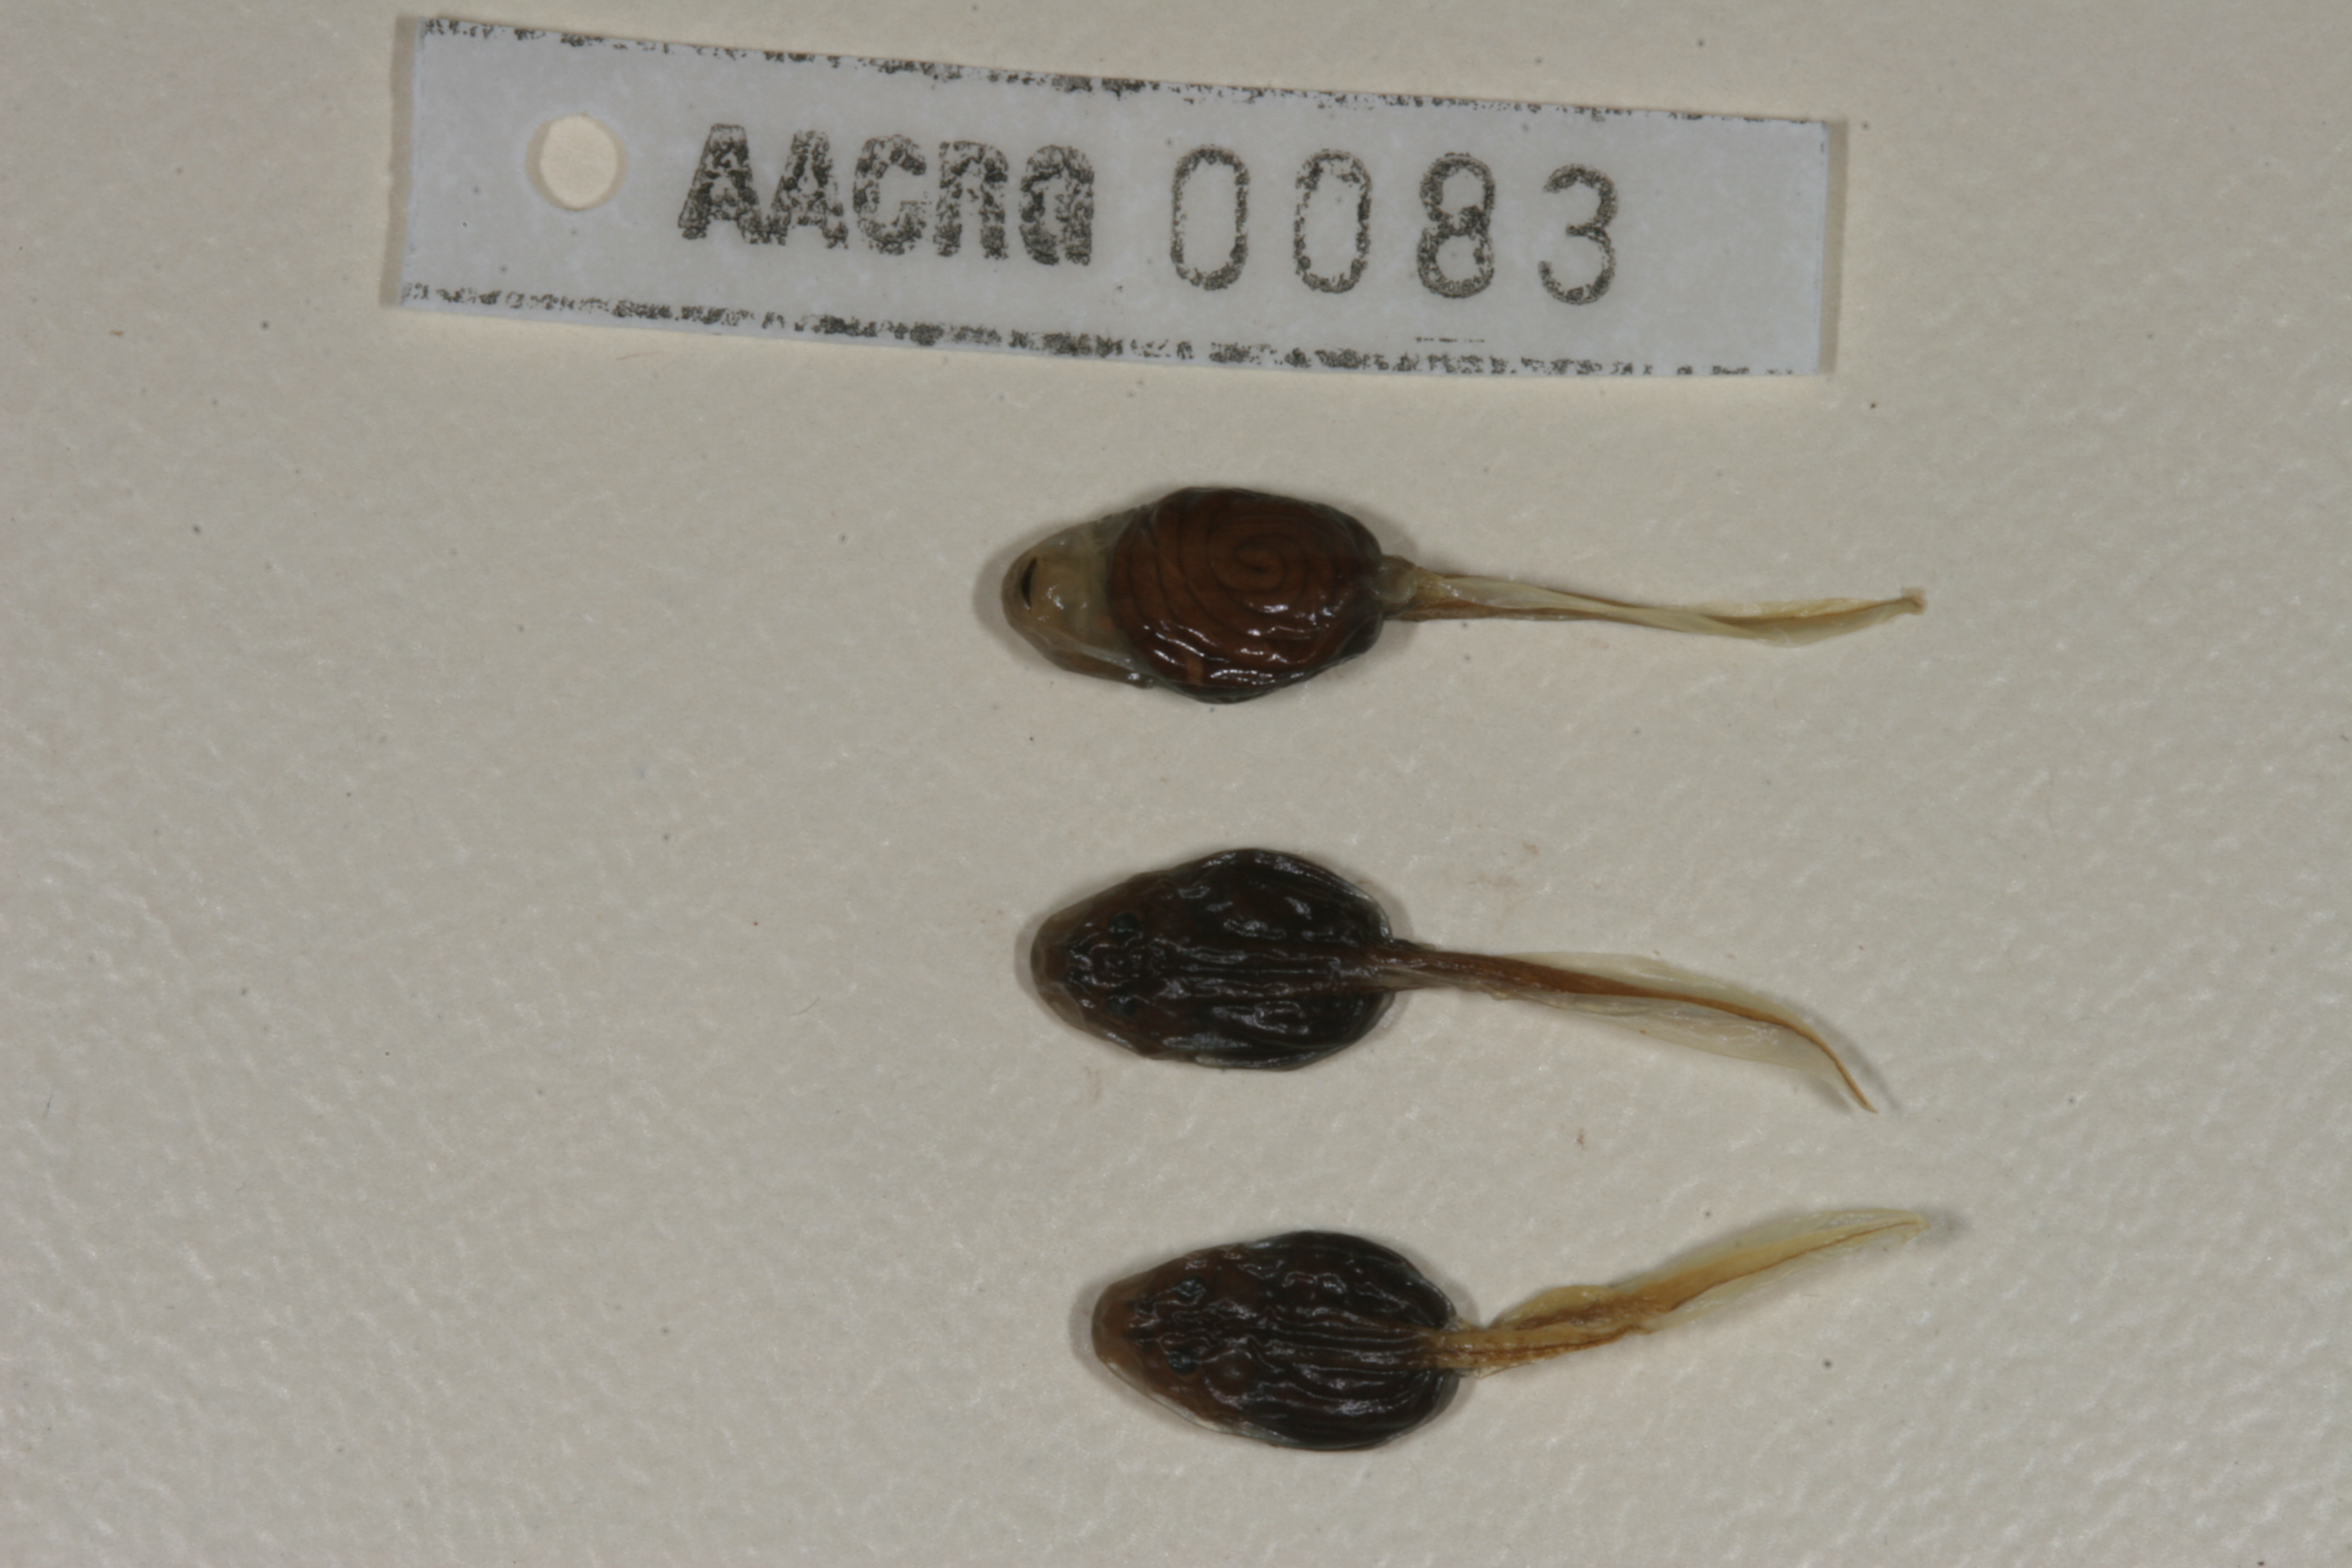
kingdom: Animalia
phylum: Chordata
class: Amphibia
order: Anura
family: Bufonidae
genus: Vandijkophrynus
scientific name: Vandijkophrynus robinsoni
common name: Paradise toad
